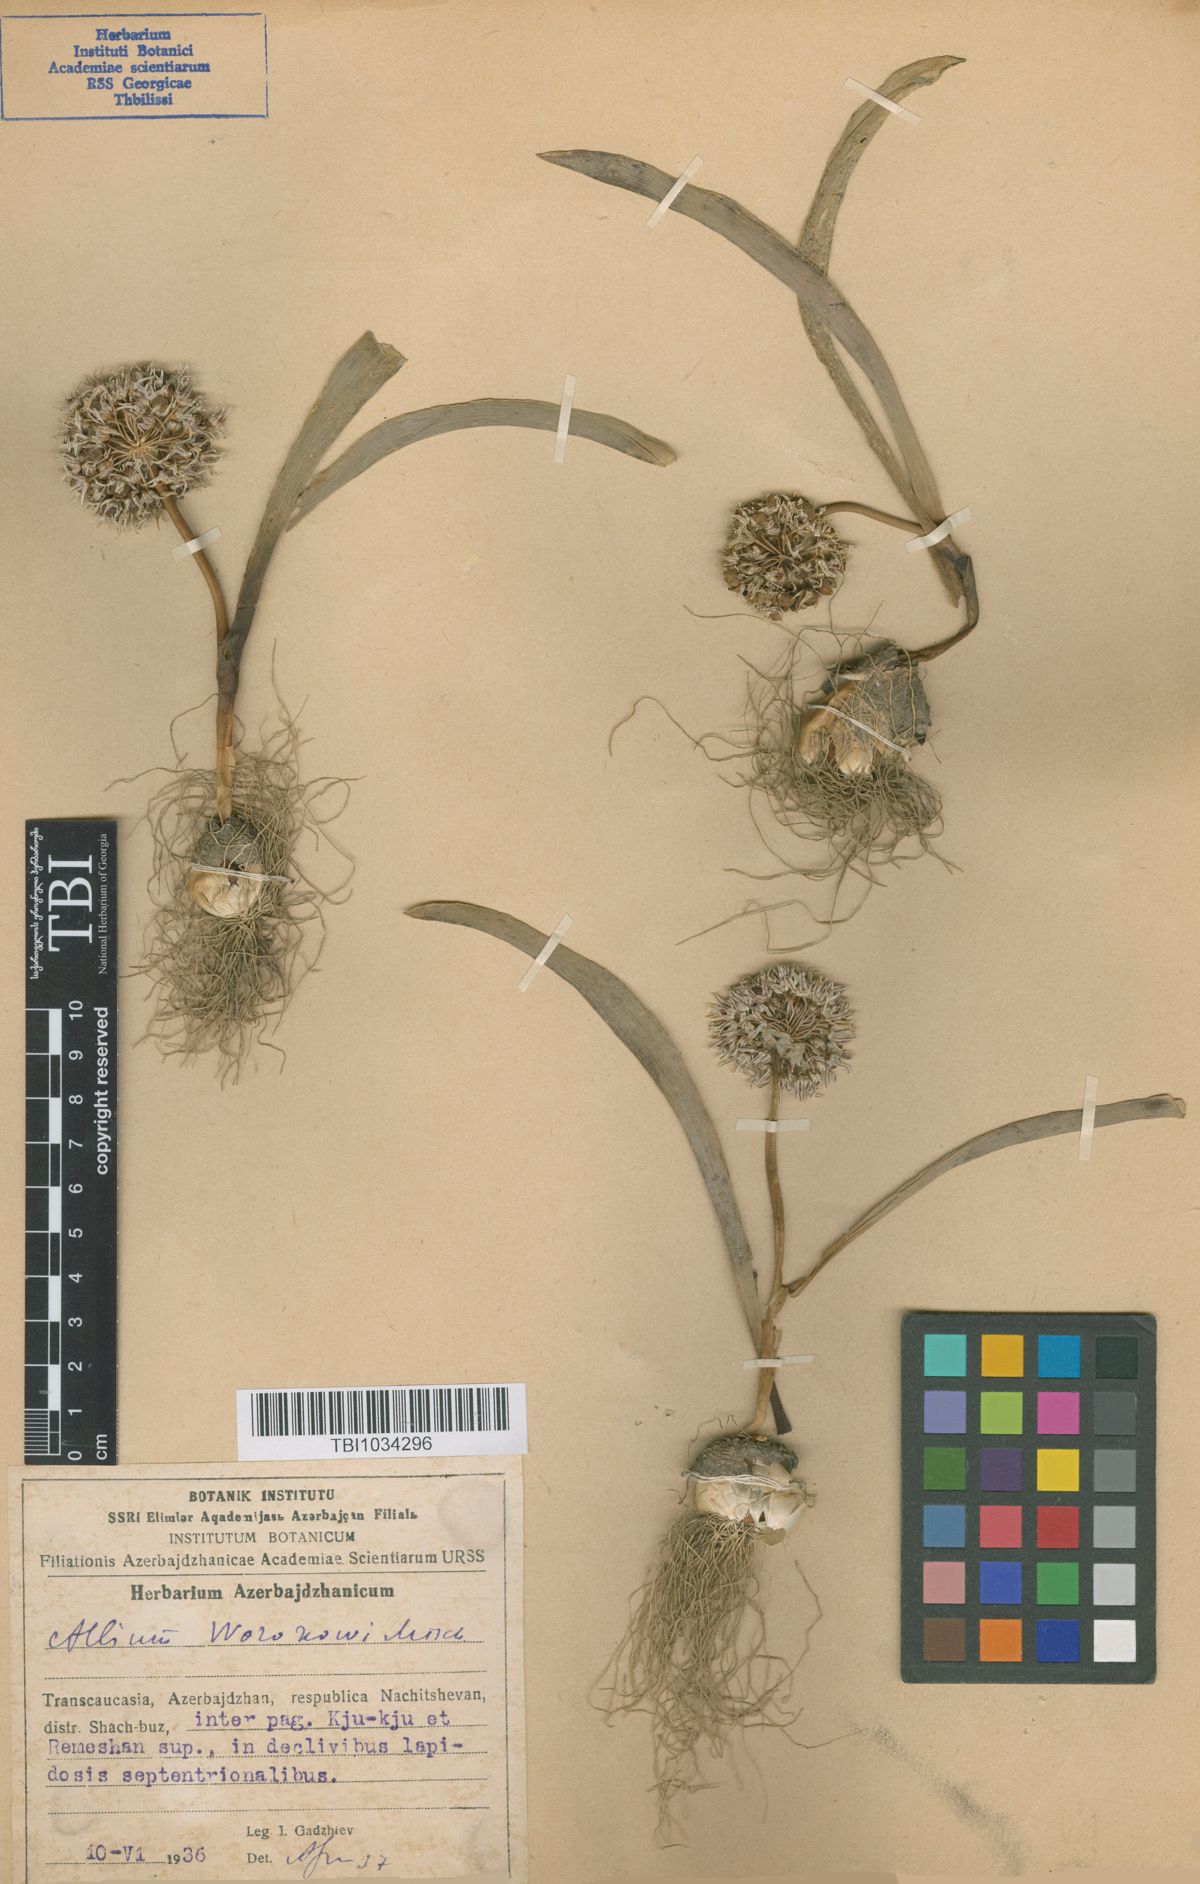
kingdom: Plantae
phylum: Tracheophyta
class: Liliopsida
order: Asparagales
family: Amaryllidaceae
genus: Allium
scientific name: Allium woronowii
